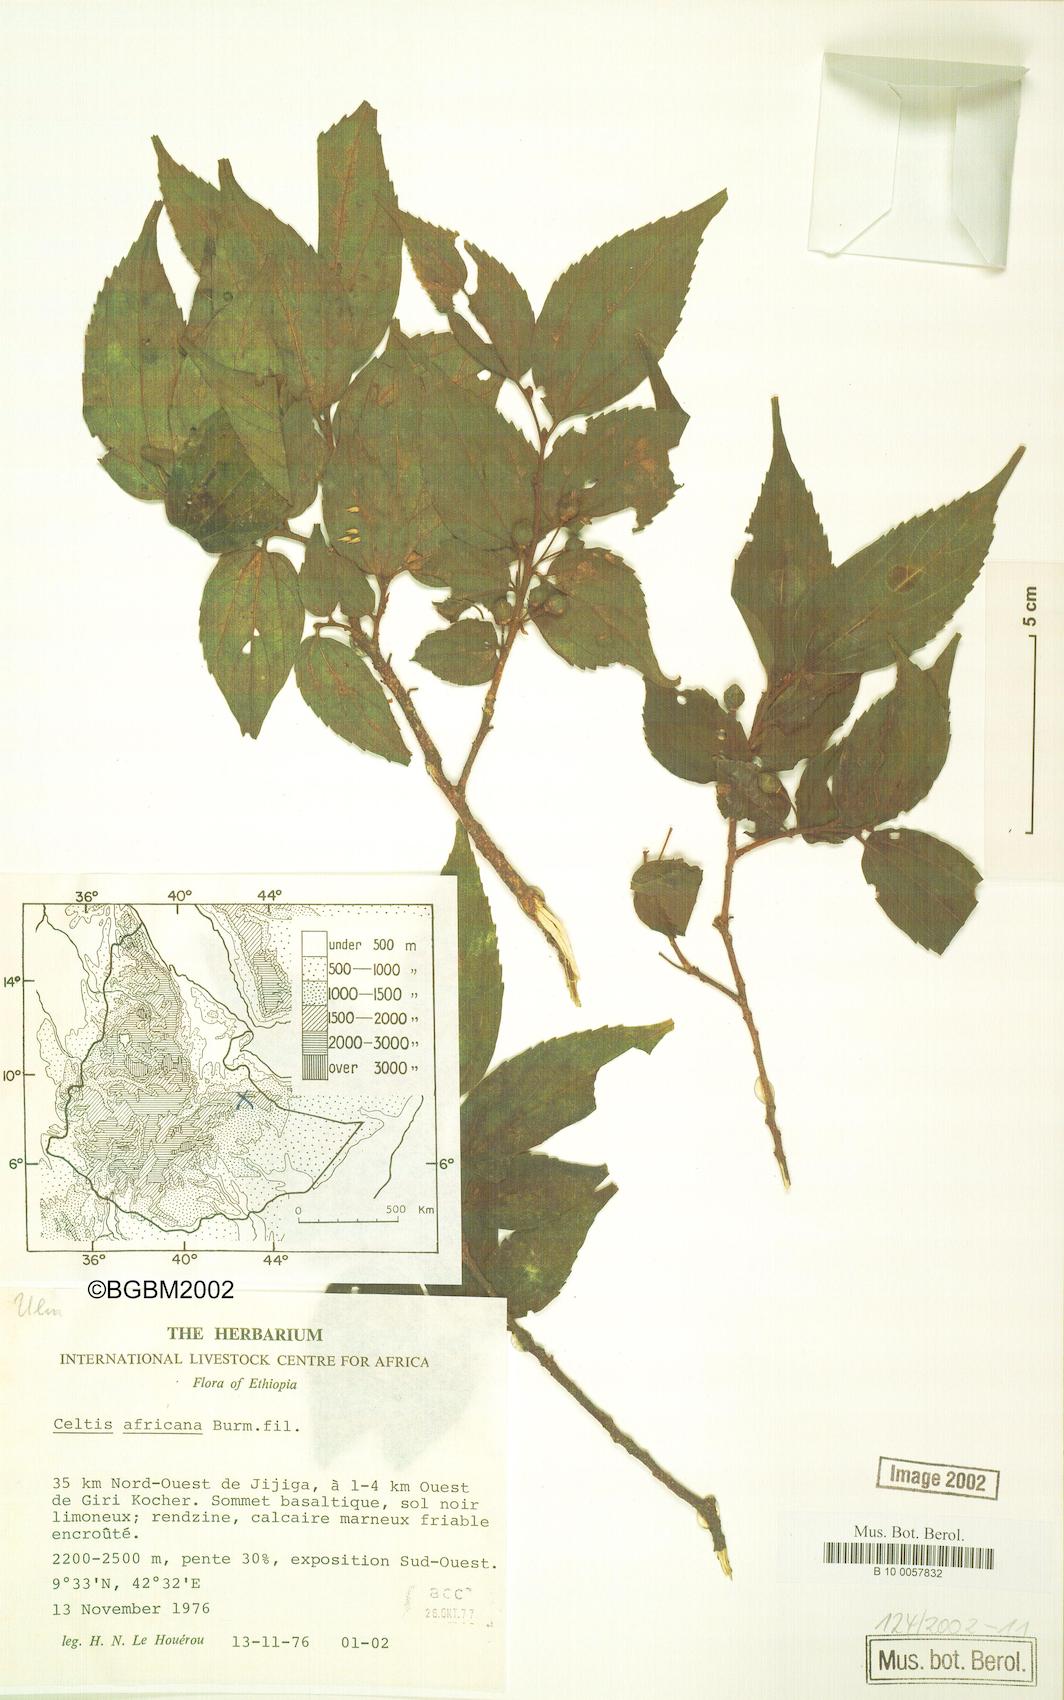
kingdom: Plantae
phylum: Tracheophyta
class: Magnoliopsida
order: Rosales
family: Cannabaceae
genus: Celtis
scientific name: Celtis africana
